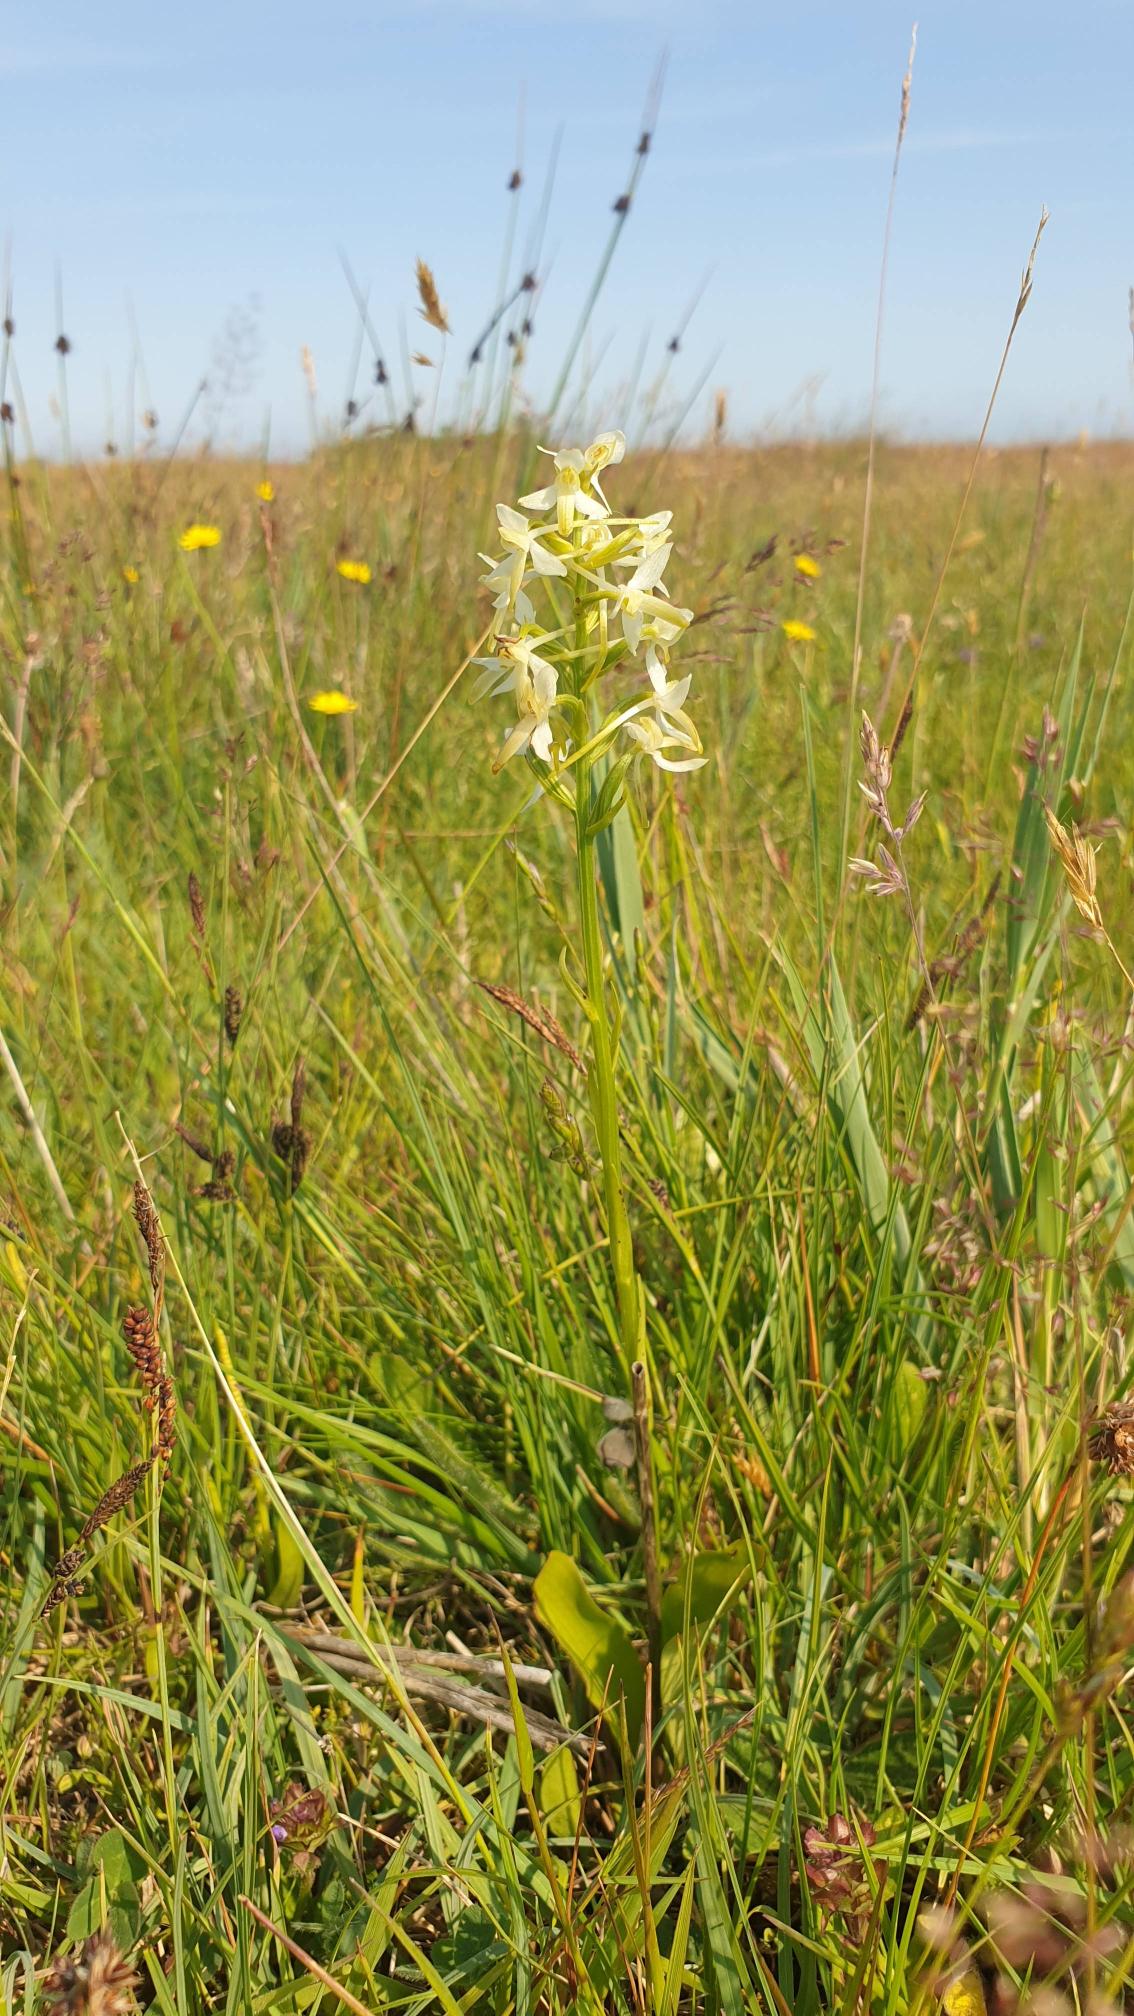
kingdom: Plantae
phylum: Tracheophyta
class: Liliopsida
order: Asparagales
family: Orchidaceae
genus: Platanthera
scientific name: Platanthera bifolia
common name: Bakke-gøgelilje
